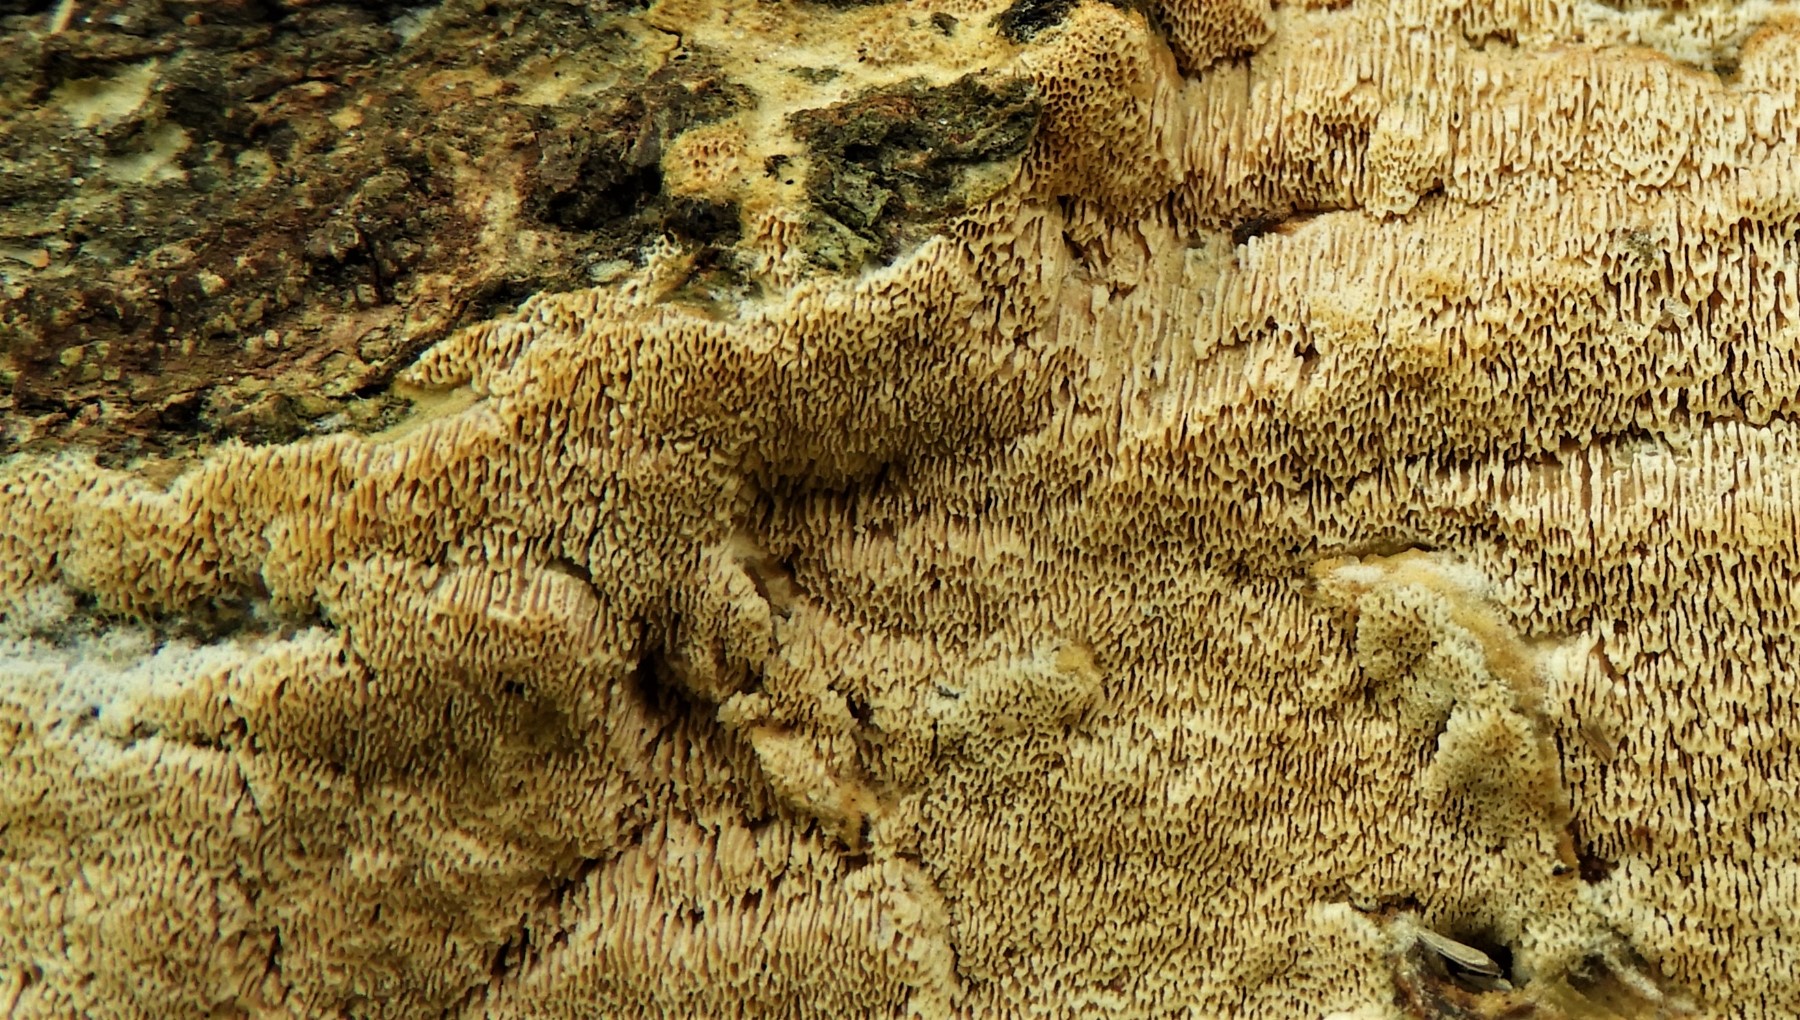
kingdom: Fungi
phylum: Basidiomycota
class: Agaricomycetes
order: Hymenochaetales
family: Schizoporaceae
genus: Xylodon
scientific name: Xylodon subtropicus
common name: labyrint-tandsvamp
